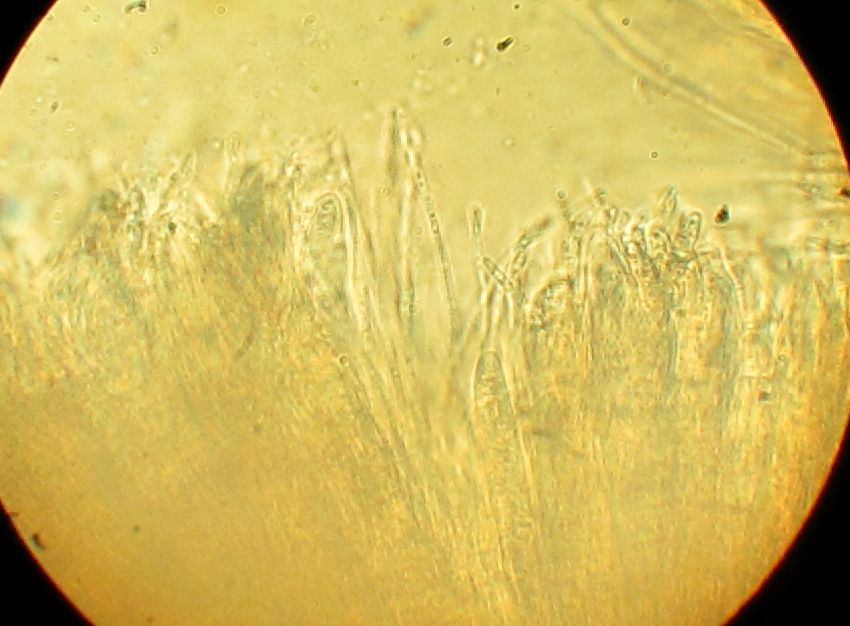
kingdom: Fungi
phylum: Ascomycota
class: Leotiomycetes
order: Helotiales
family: Hyaloscyphaceae
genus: Roseodiscus
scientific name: Roseodiscus
